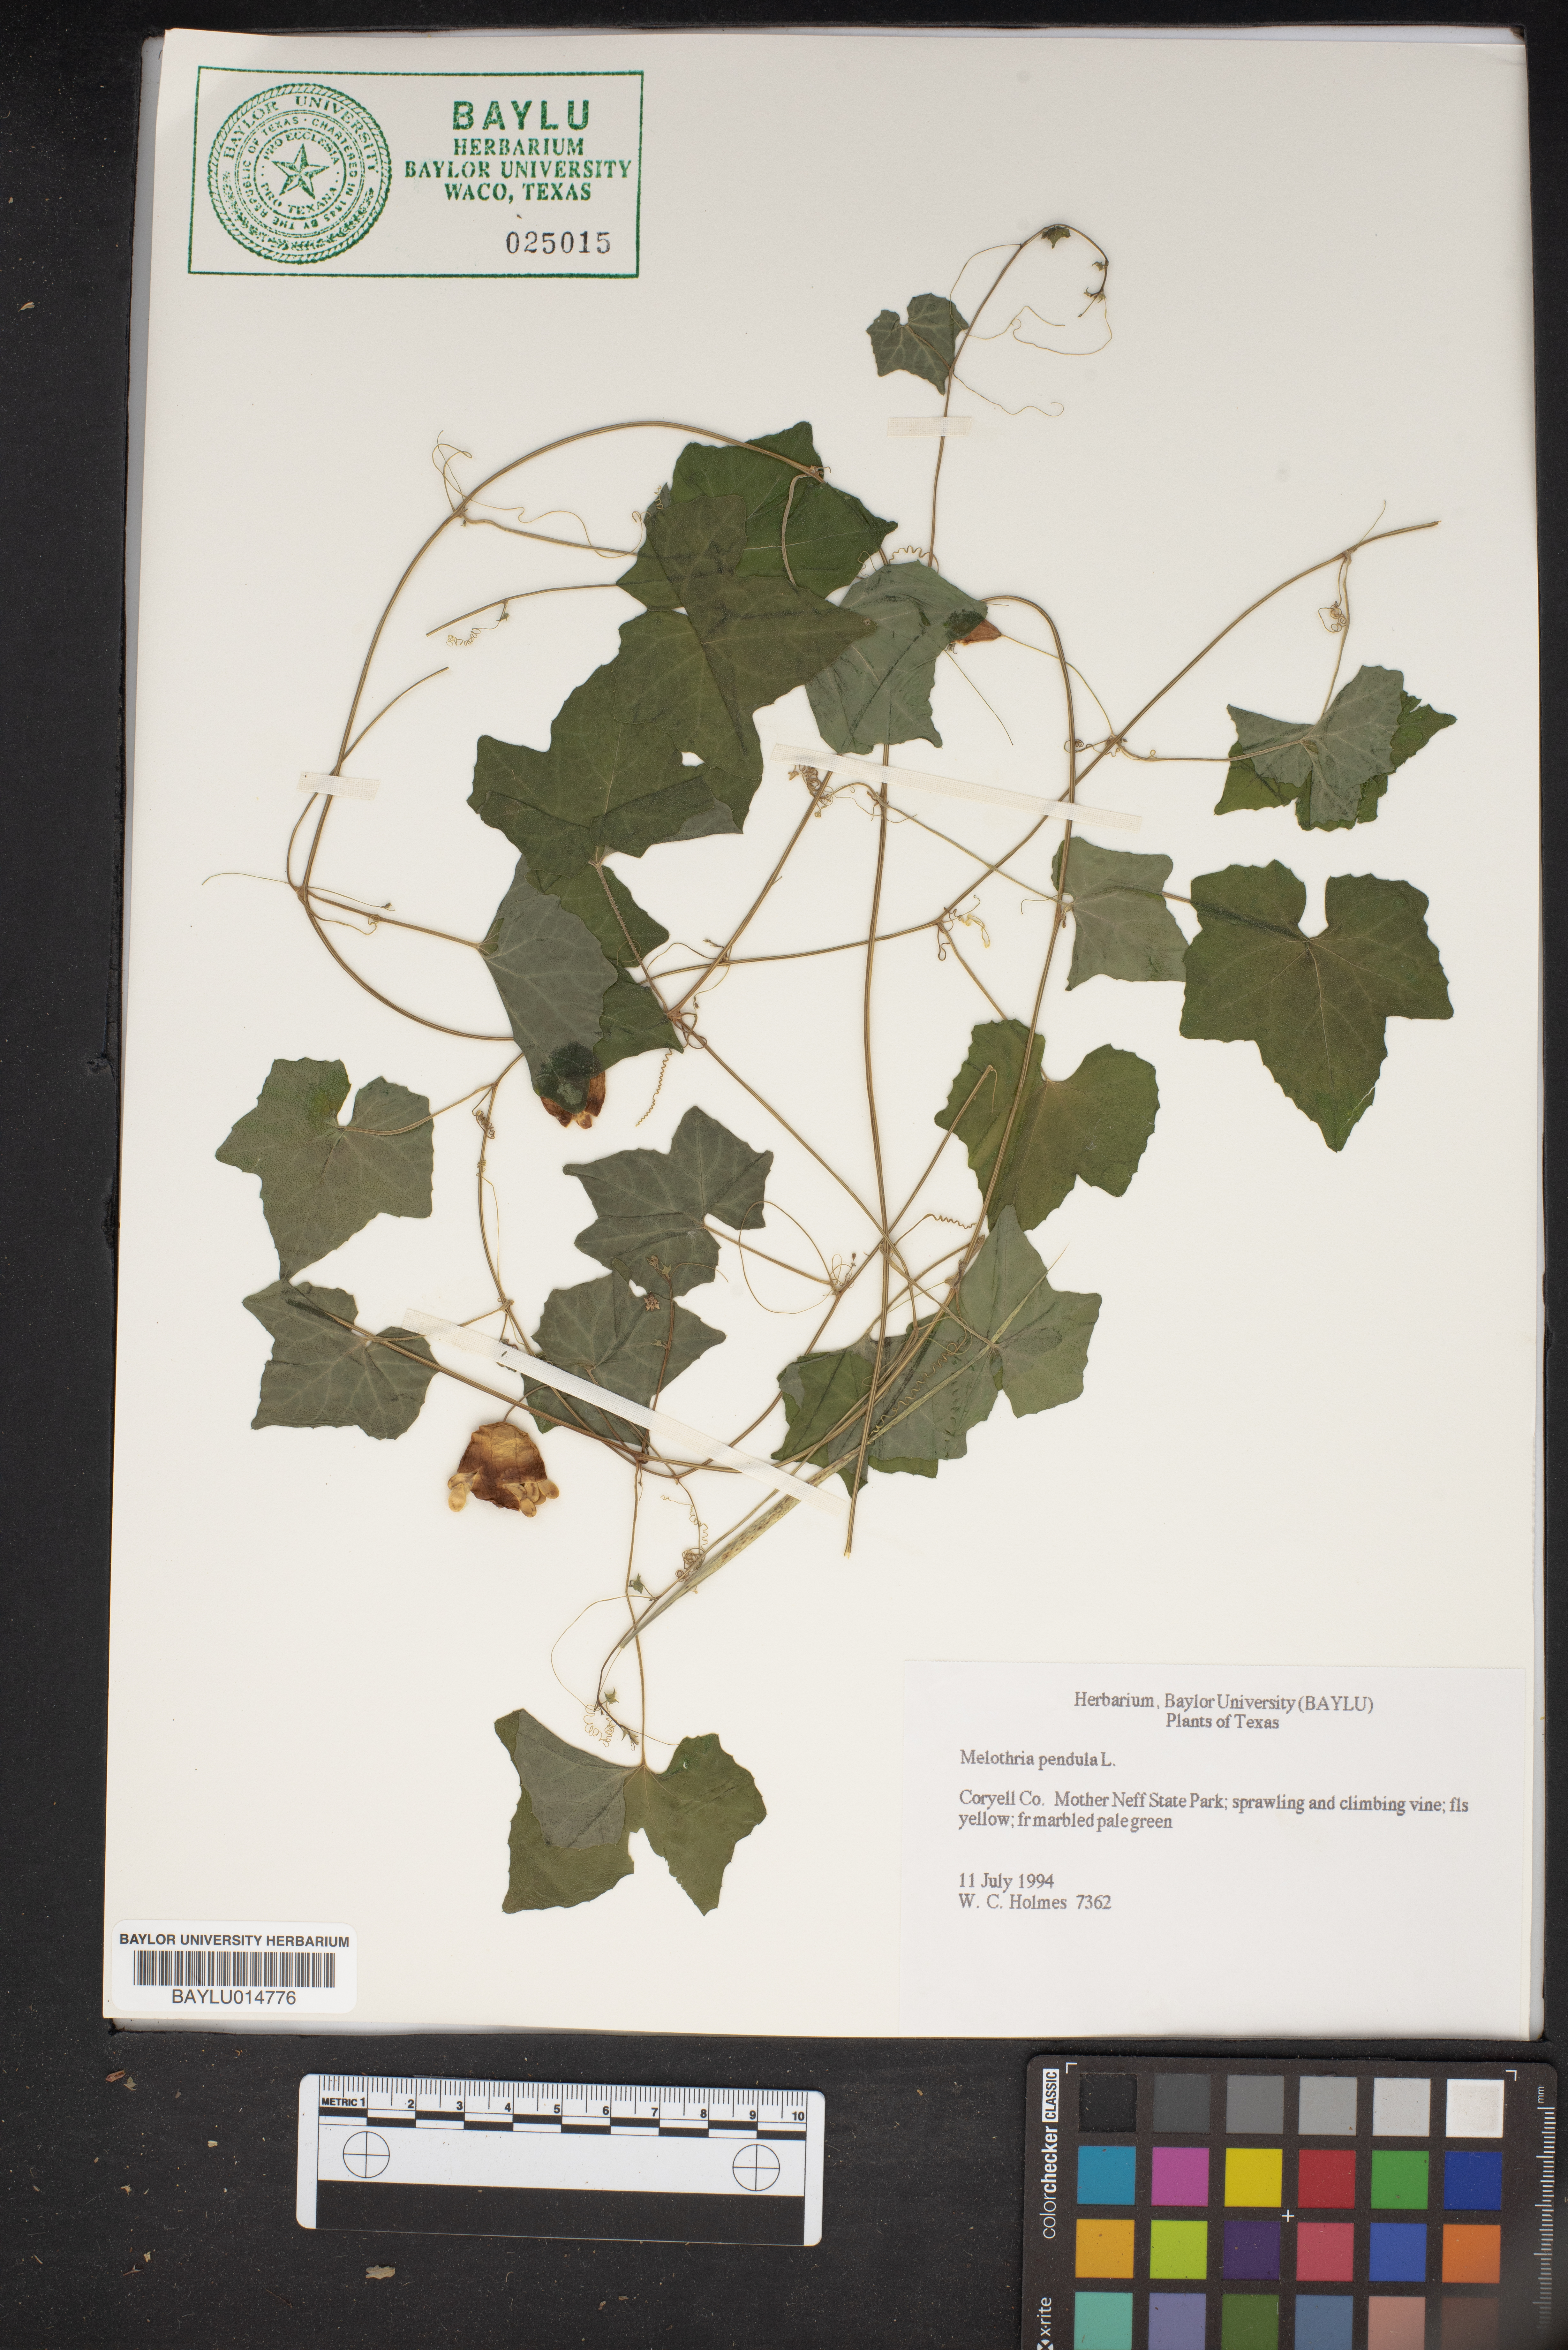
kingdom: Plantae
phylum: Tracheophyta
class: Magnoliopsida
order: Cucurbitales
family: Cucurbitaceae
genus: Melothria
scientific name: Melothria pendula
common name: Creeping-cucumber
